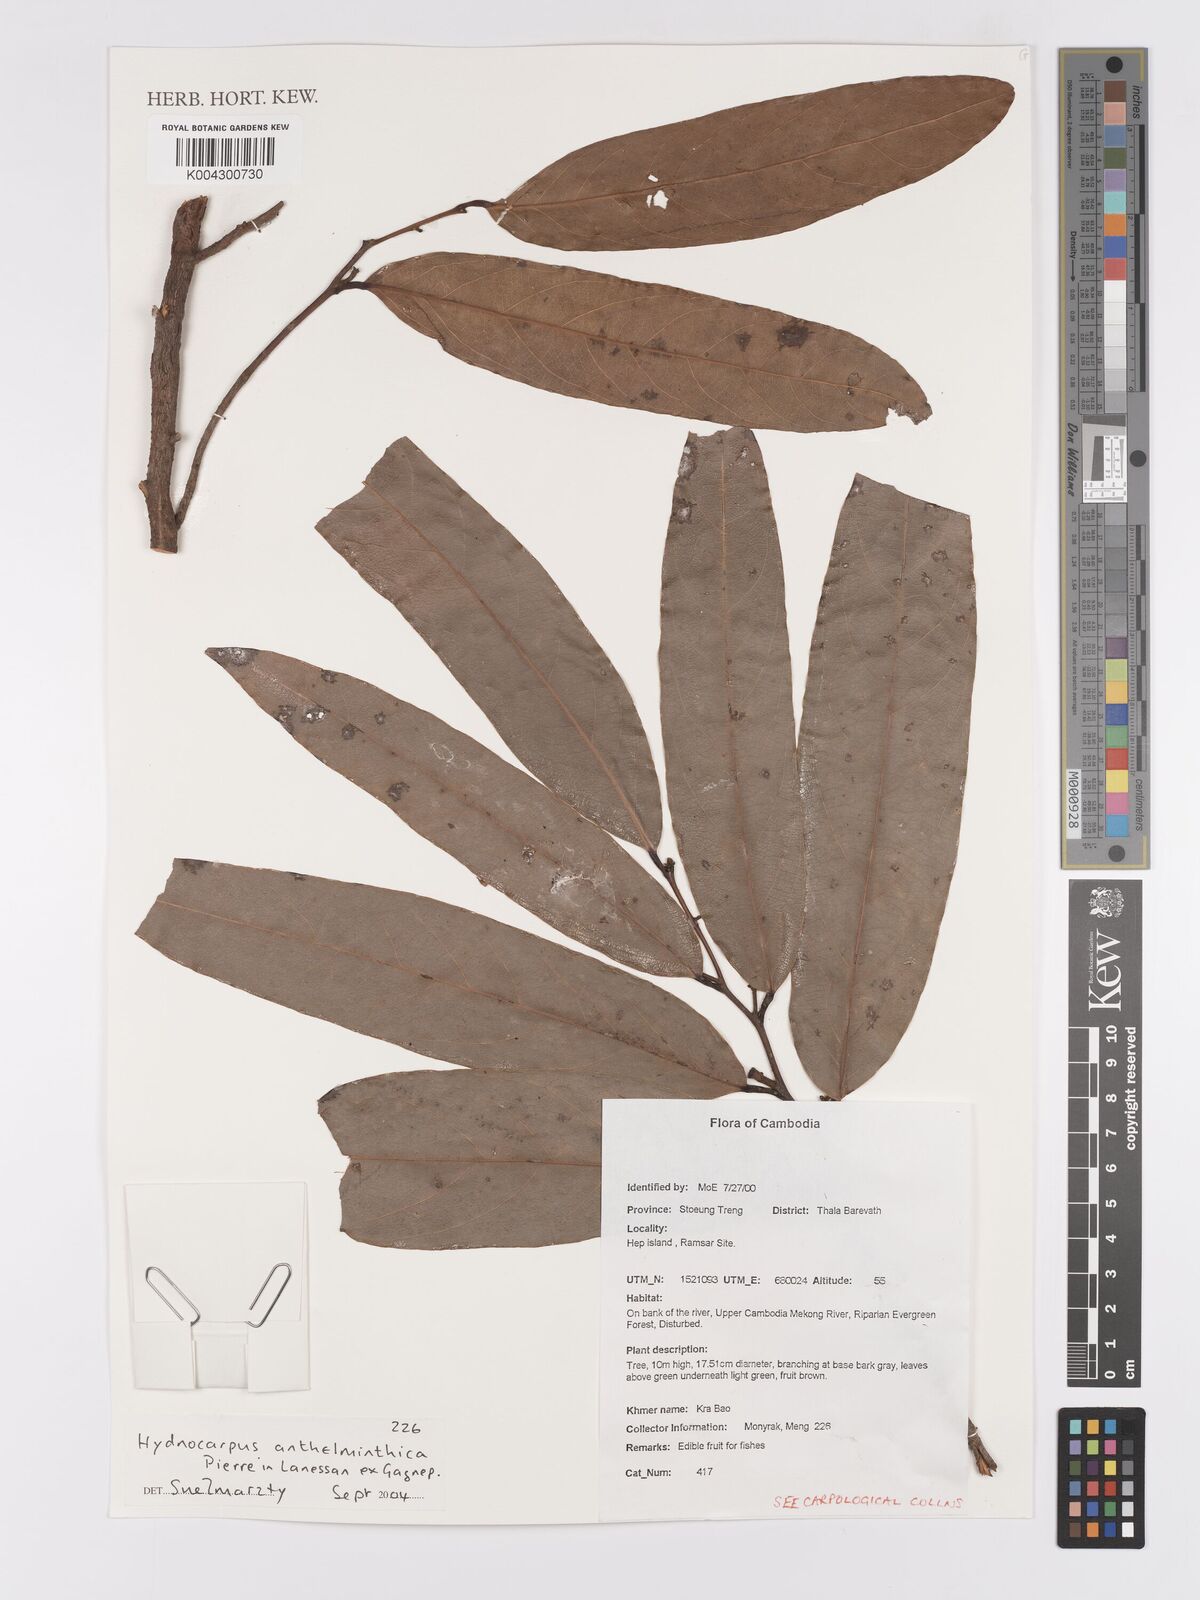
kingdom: Plantae
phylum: Tracheophyta
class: Magnoliopsida
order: Malpighiales
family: Achariaceae
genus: Hydnocarpus
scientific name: Hydnocarpus
